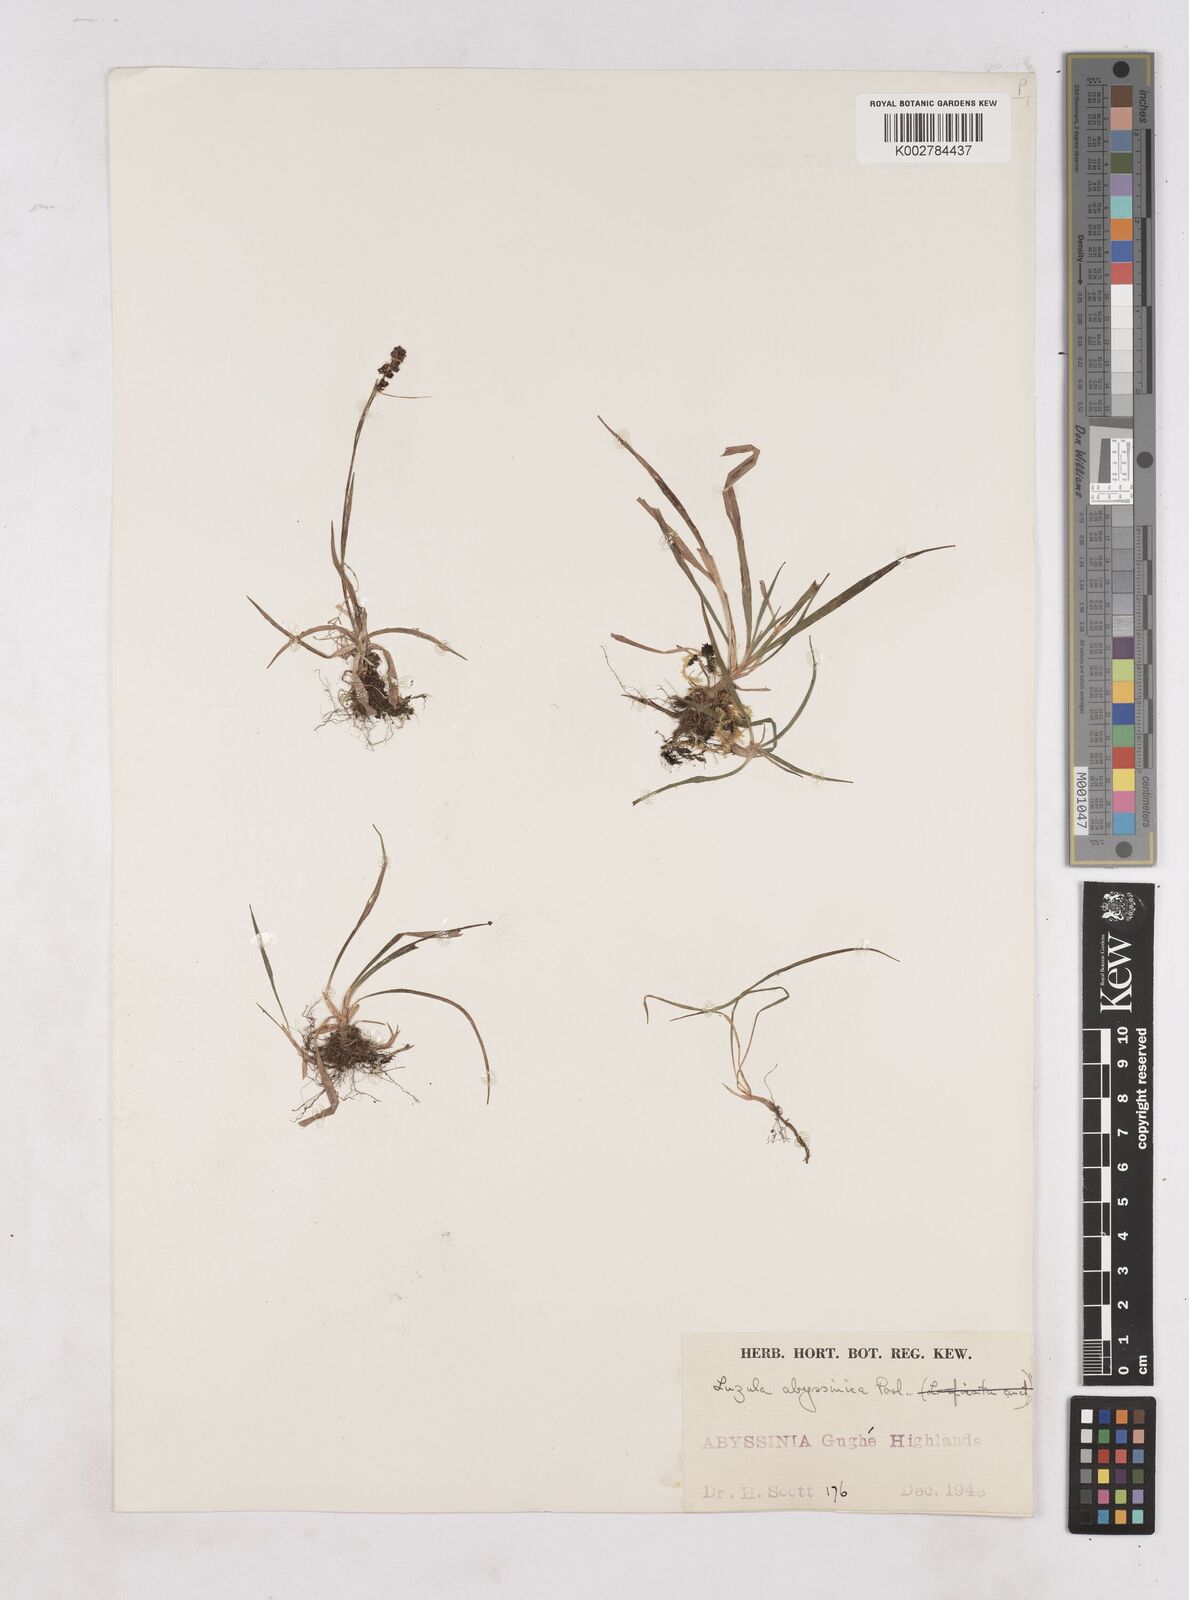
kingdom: Plantae
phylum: Tracheophyta
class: Liliopsida
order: Poales
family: Juncaceae
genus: Luzula
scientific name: Luzula abyssinica
